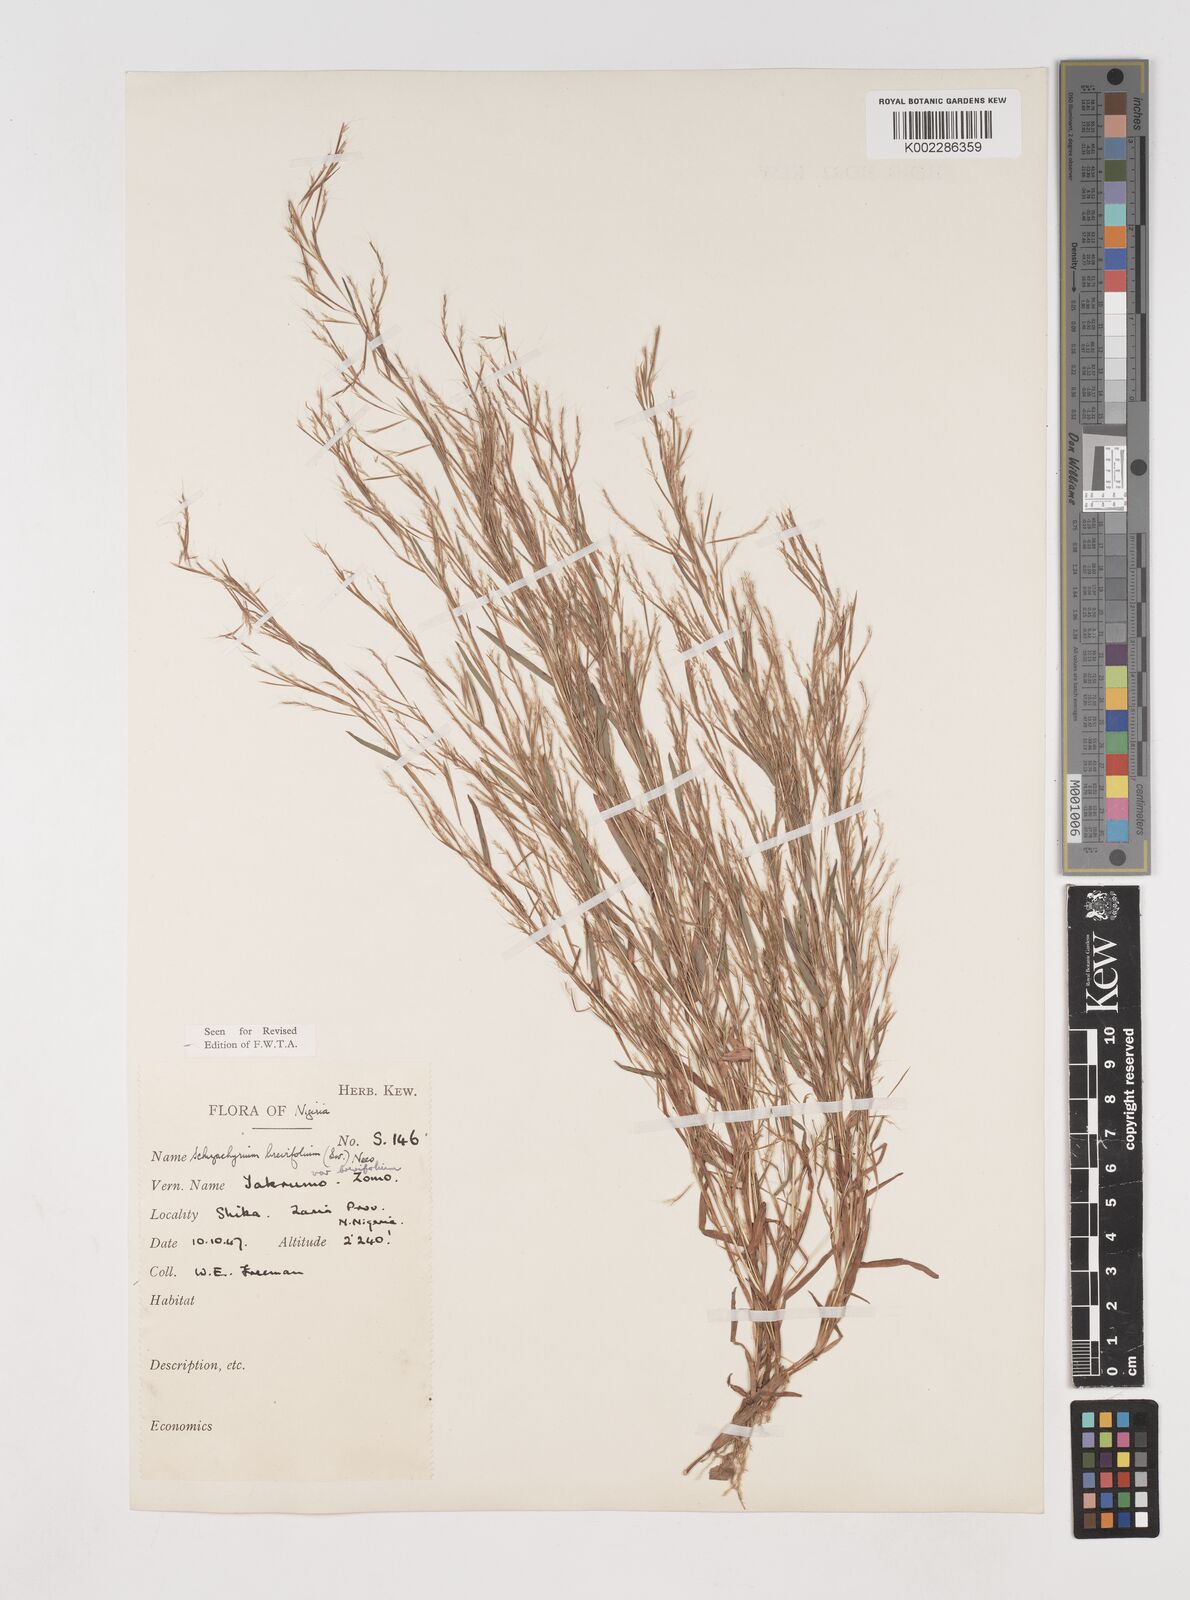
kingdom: Plantae
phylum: Tracheophyta
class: Liliopsida
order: Poales
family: Poaceae
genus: Schizachyrium
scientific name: Schizachyrium brevifolium
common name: Serillo dulce
